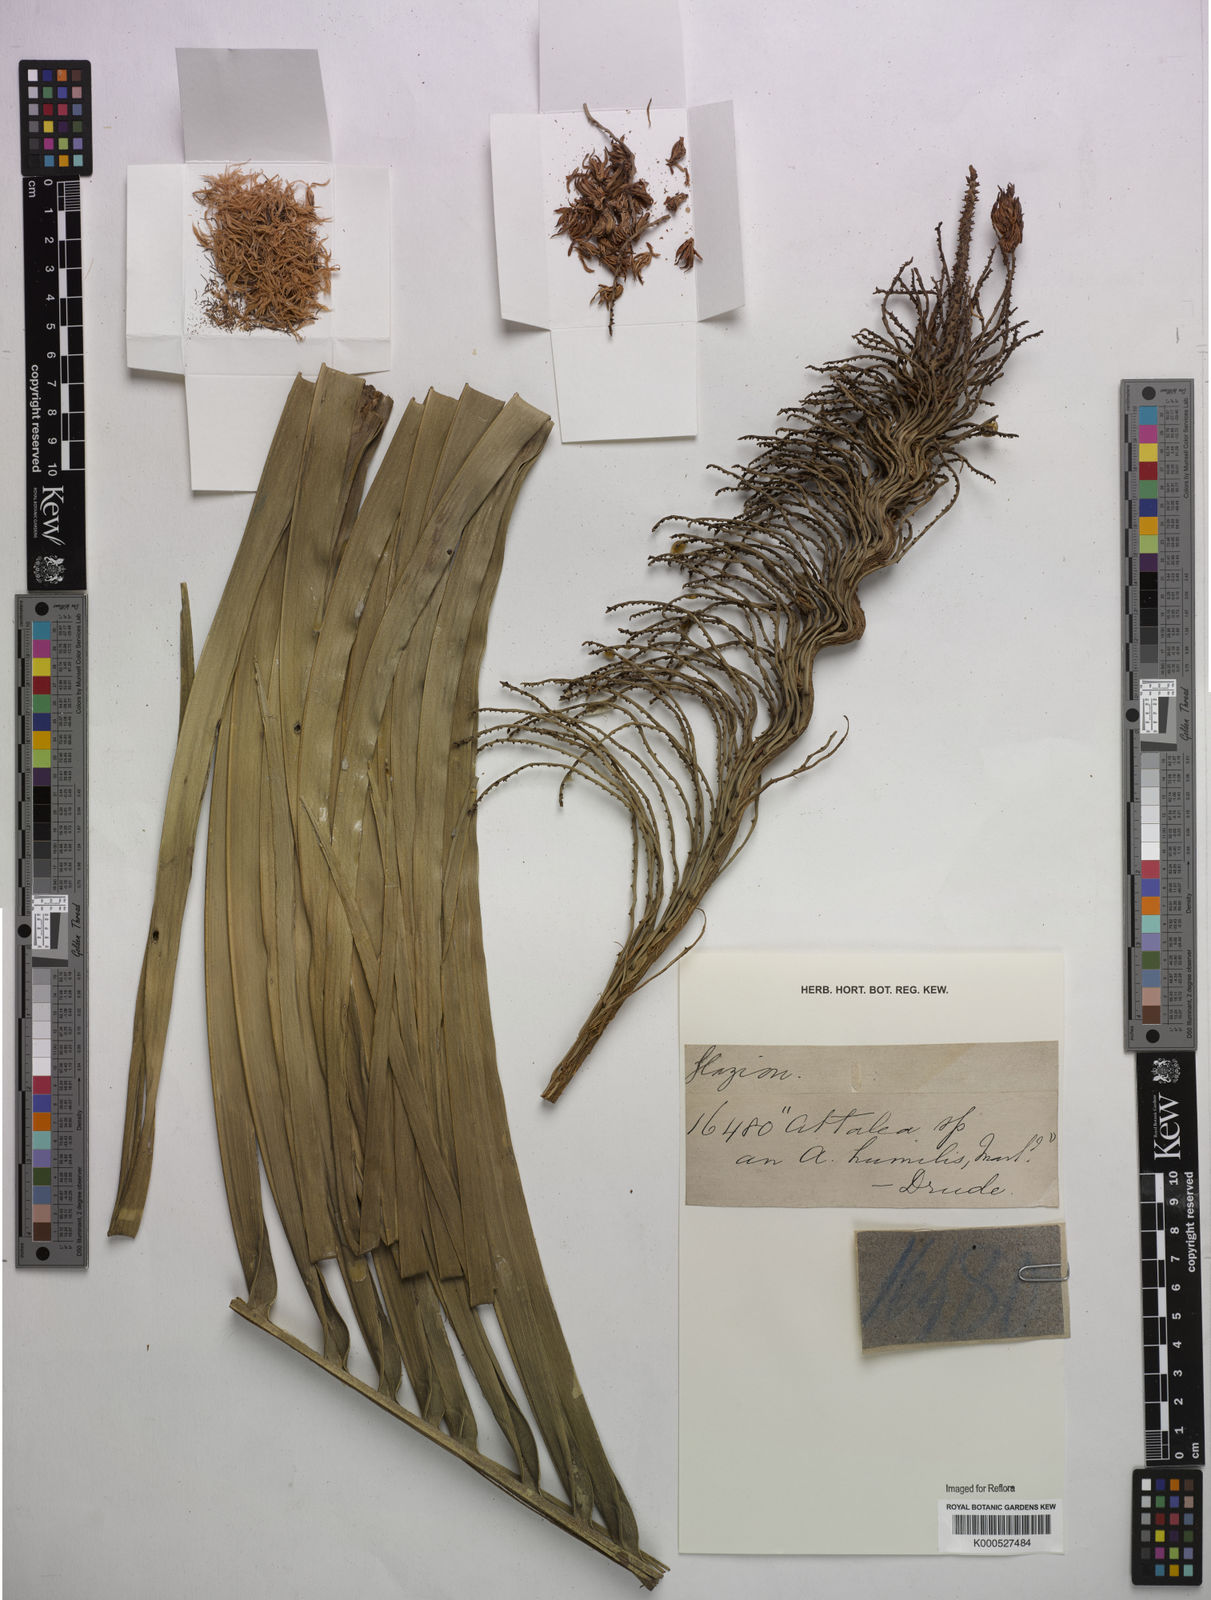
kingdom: Plantae
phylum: Tracheophyta
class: Liliopsida
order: Arecales
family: Arecaceae
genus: Attalea
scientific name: Attalea
